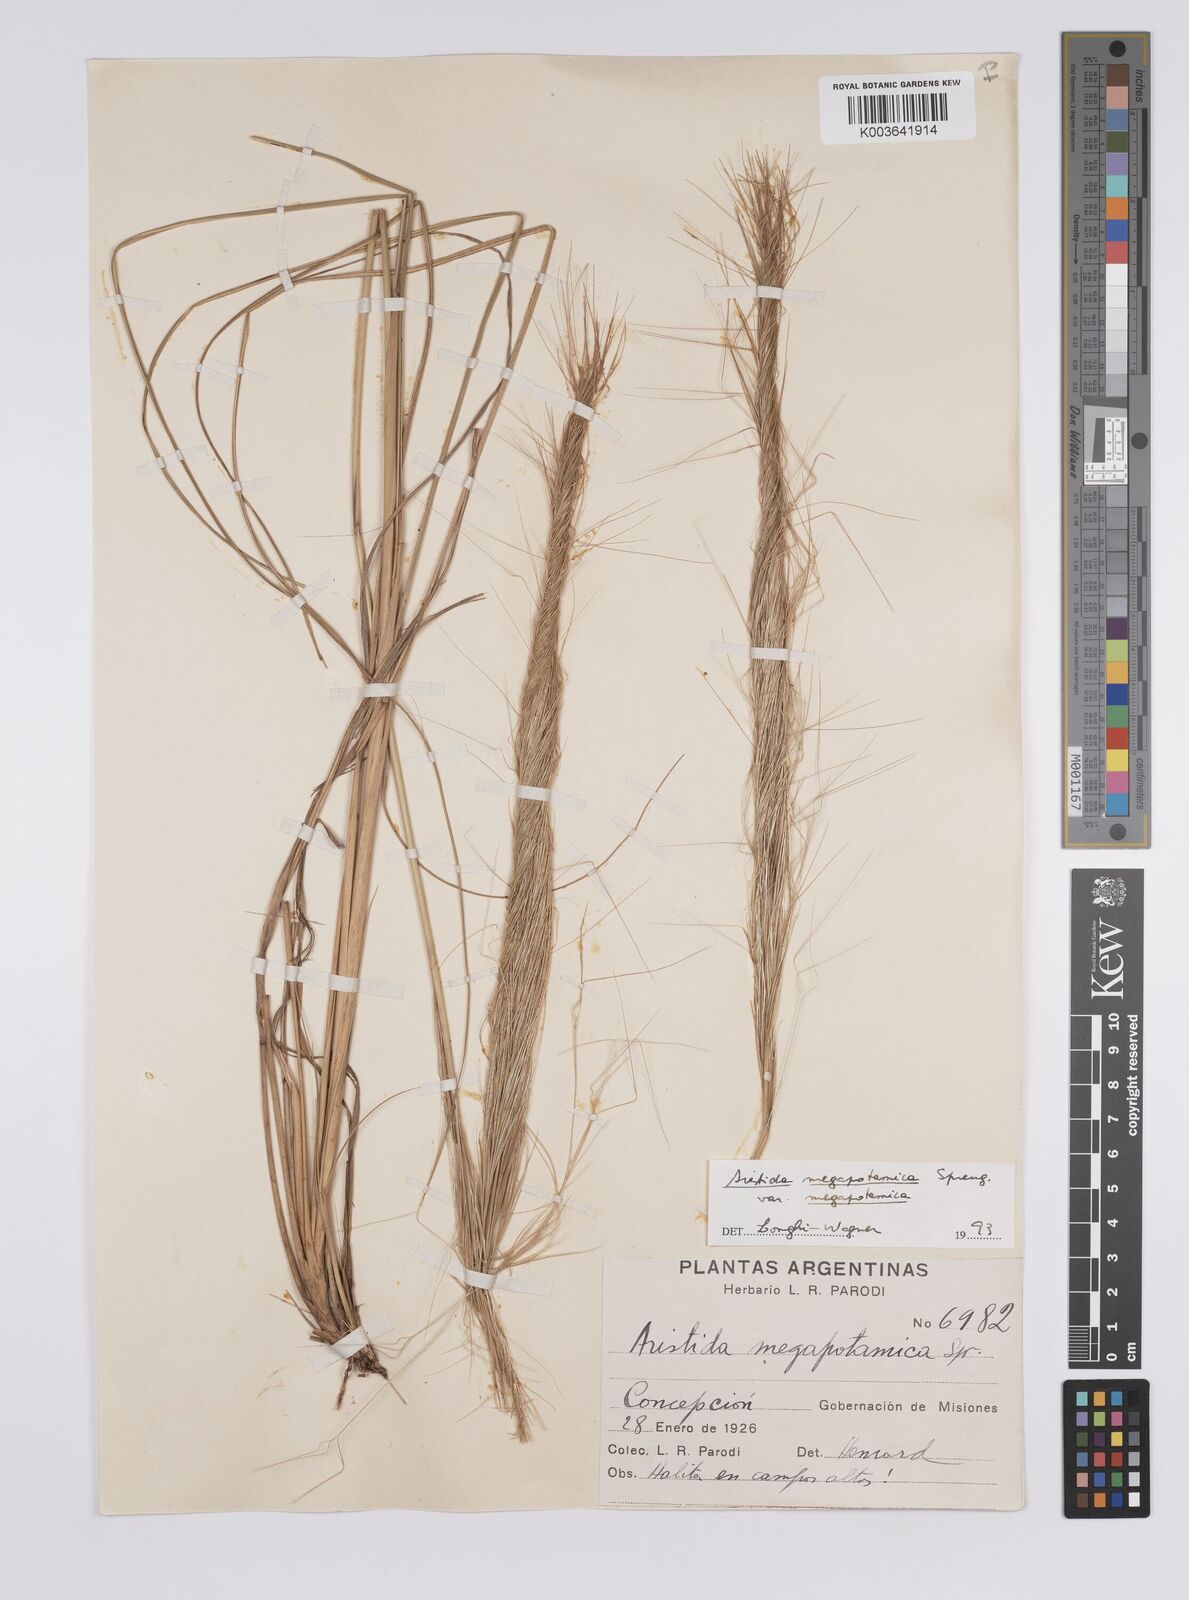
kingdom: Plantae
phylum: Tracheophyta
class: Liliopsida
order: Poales
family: Poaceae
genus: Aristida
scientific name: Aristida megapotamica
